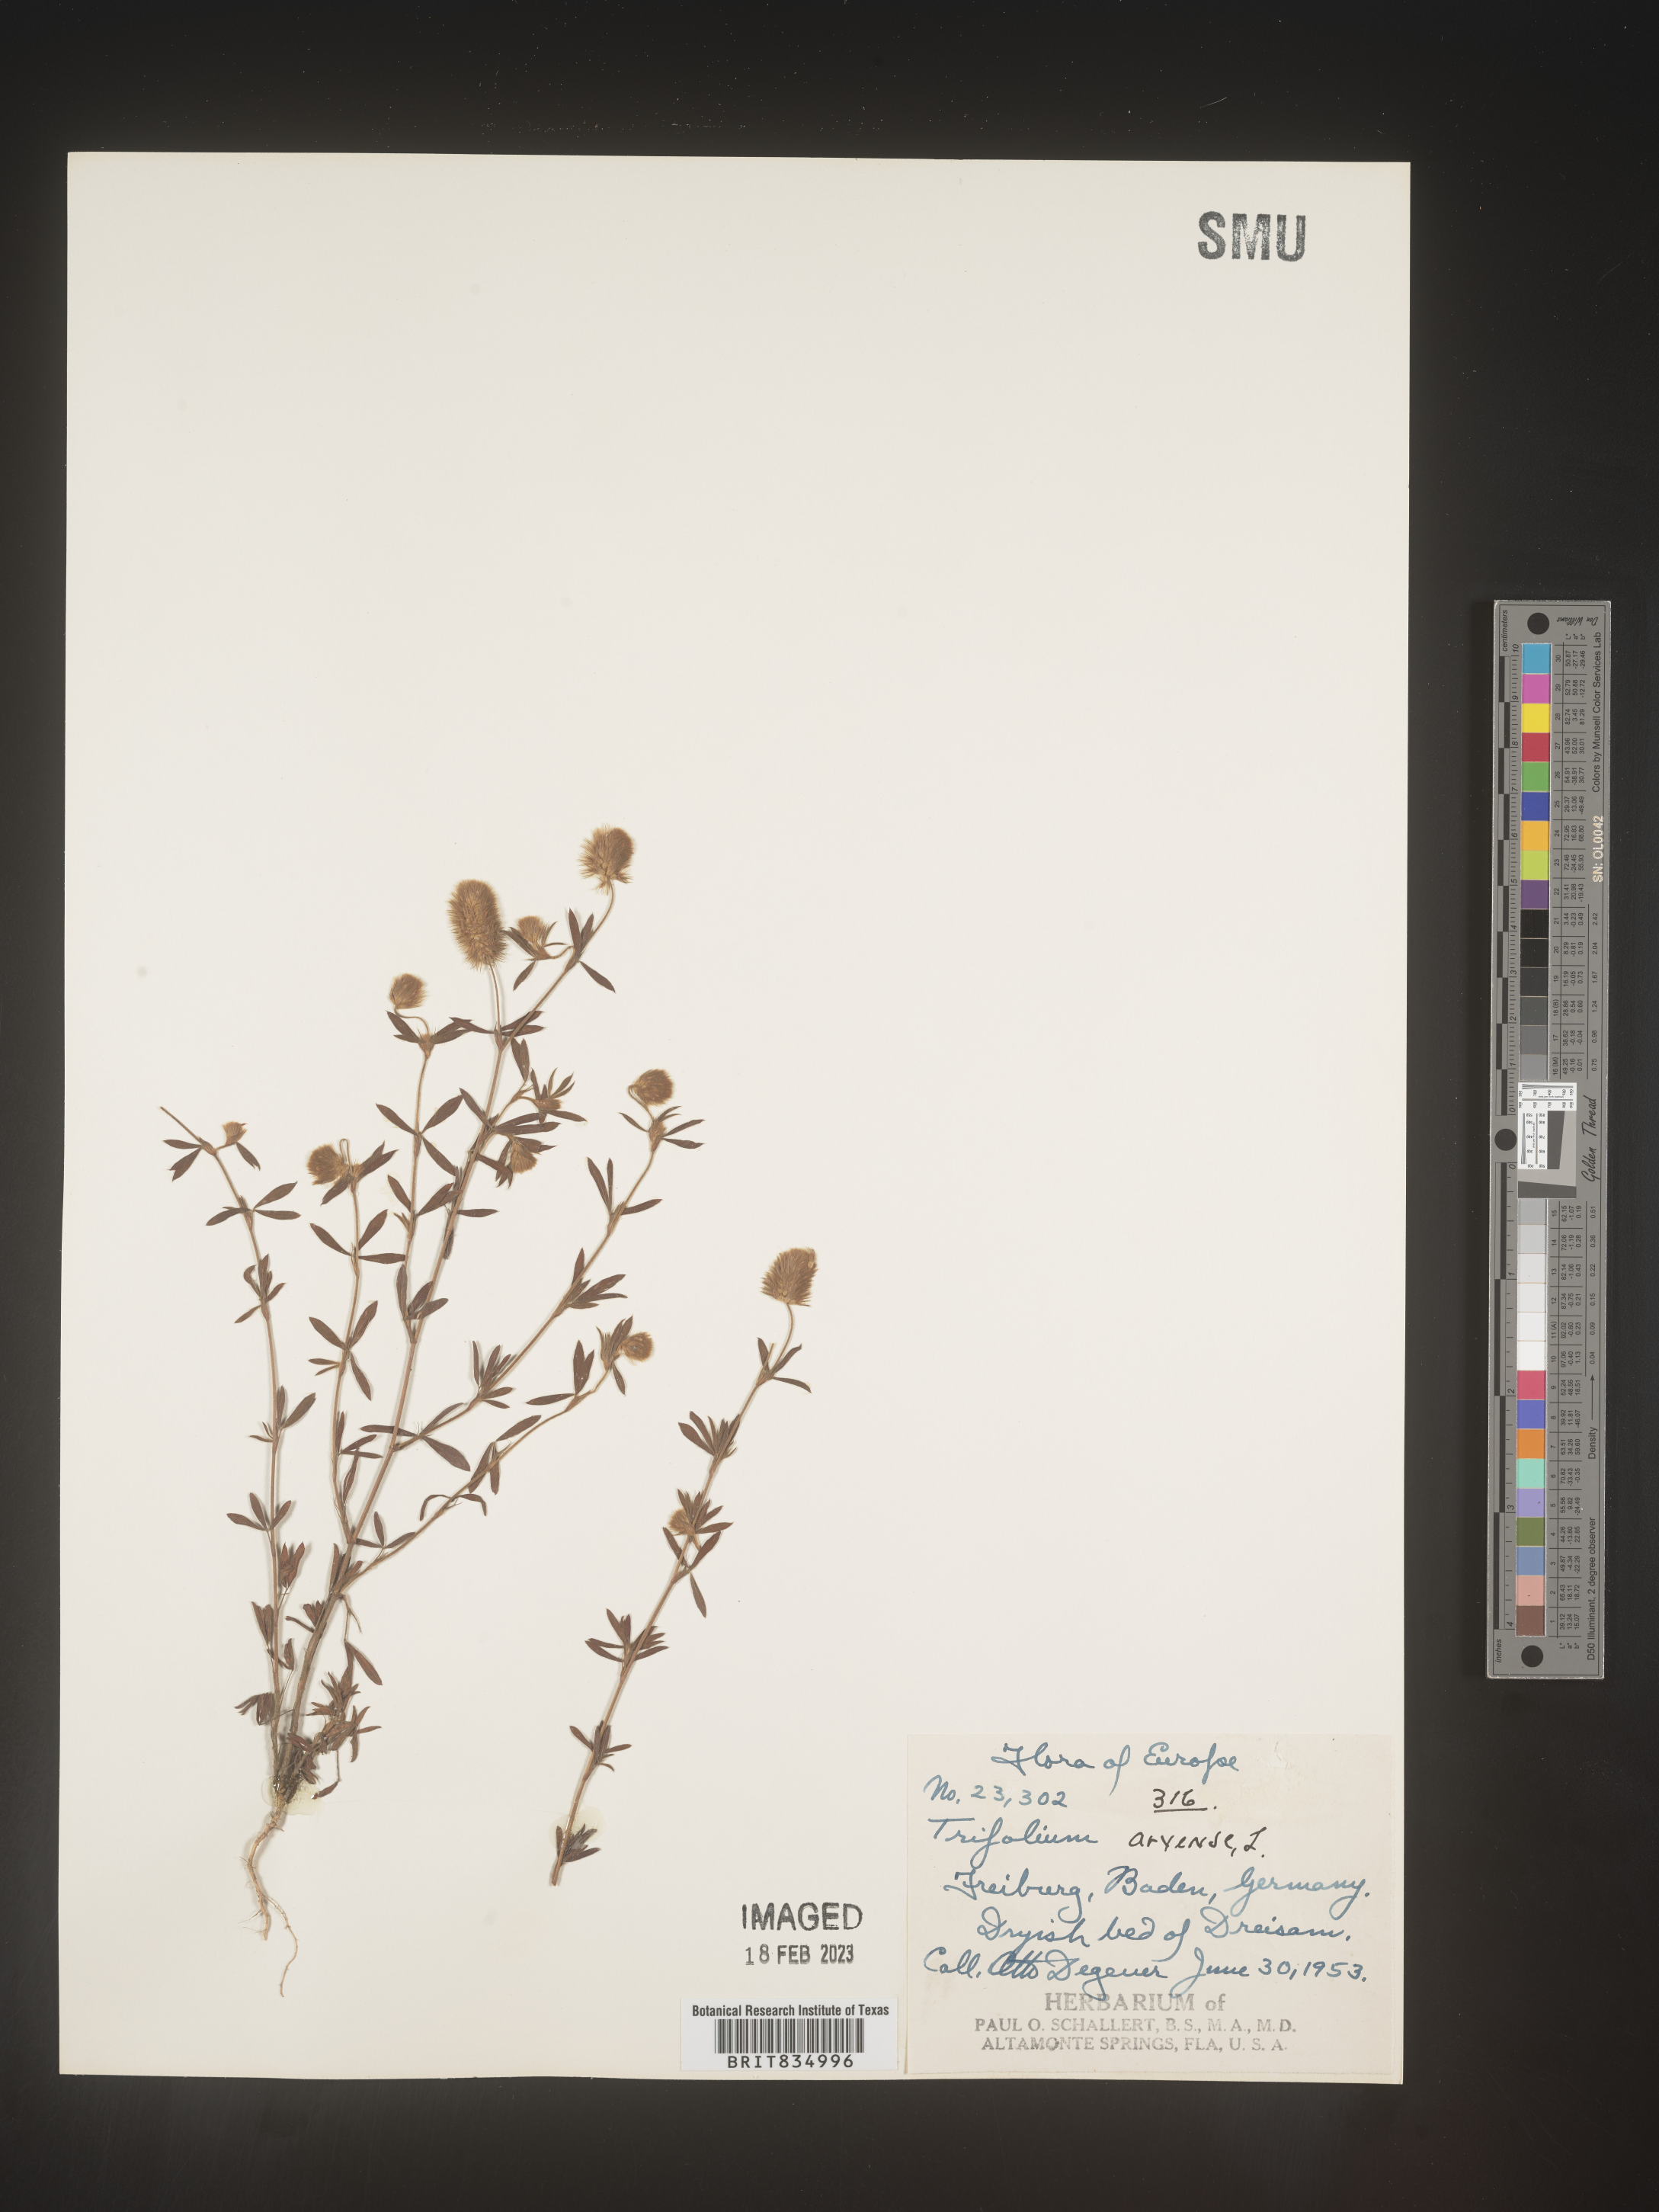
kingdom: Plantae
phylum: Tracheophyta
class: Magnoliopsida
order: Fabales
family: Fabaceae
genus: Trifolium
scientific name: Trifolium
